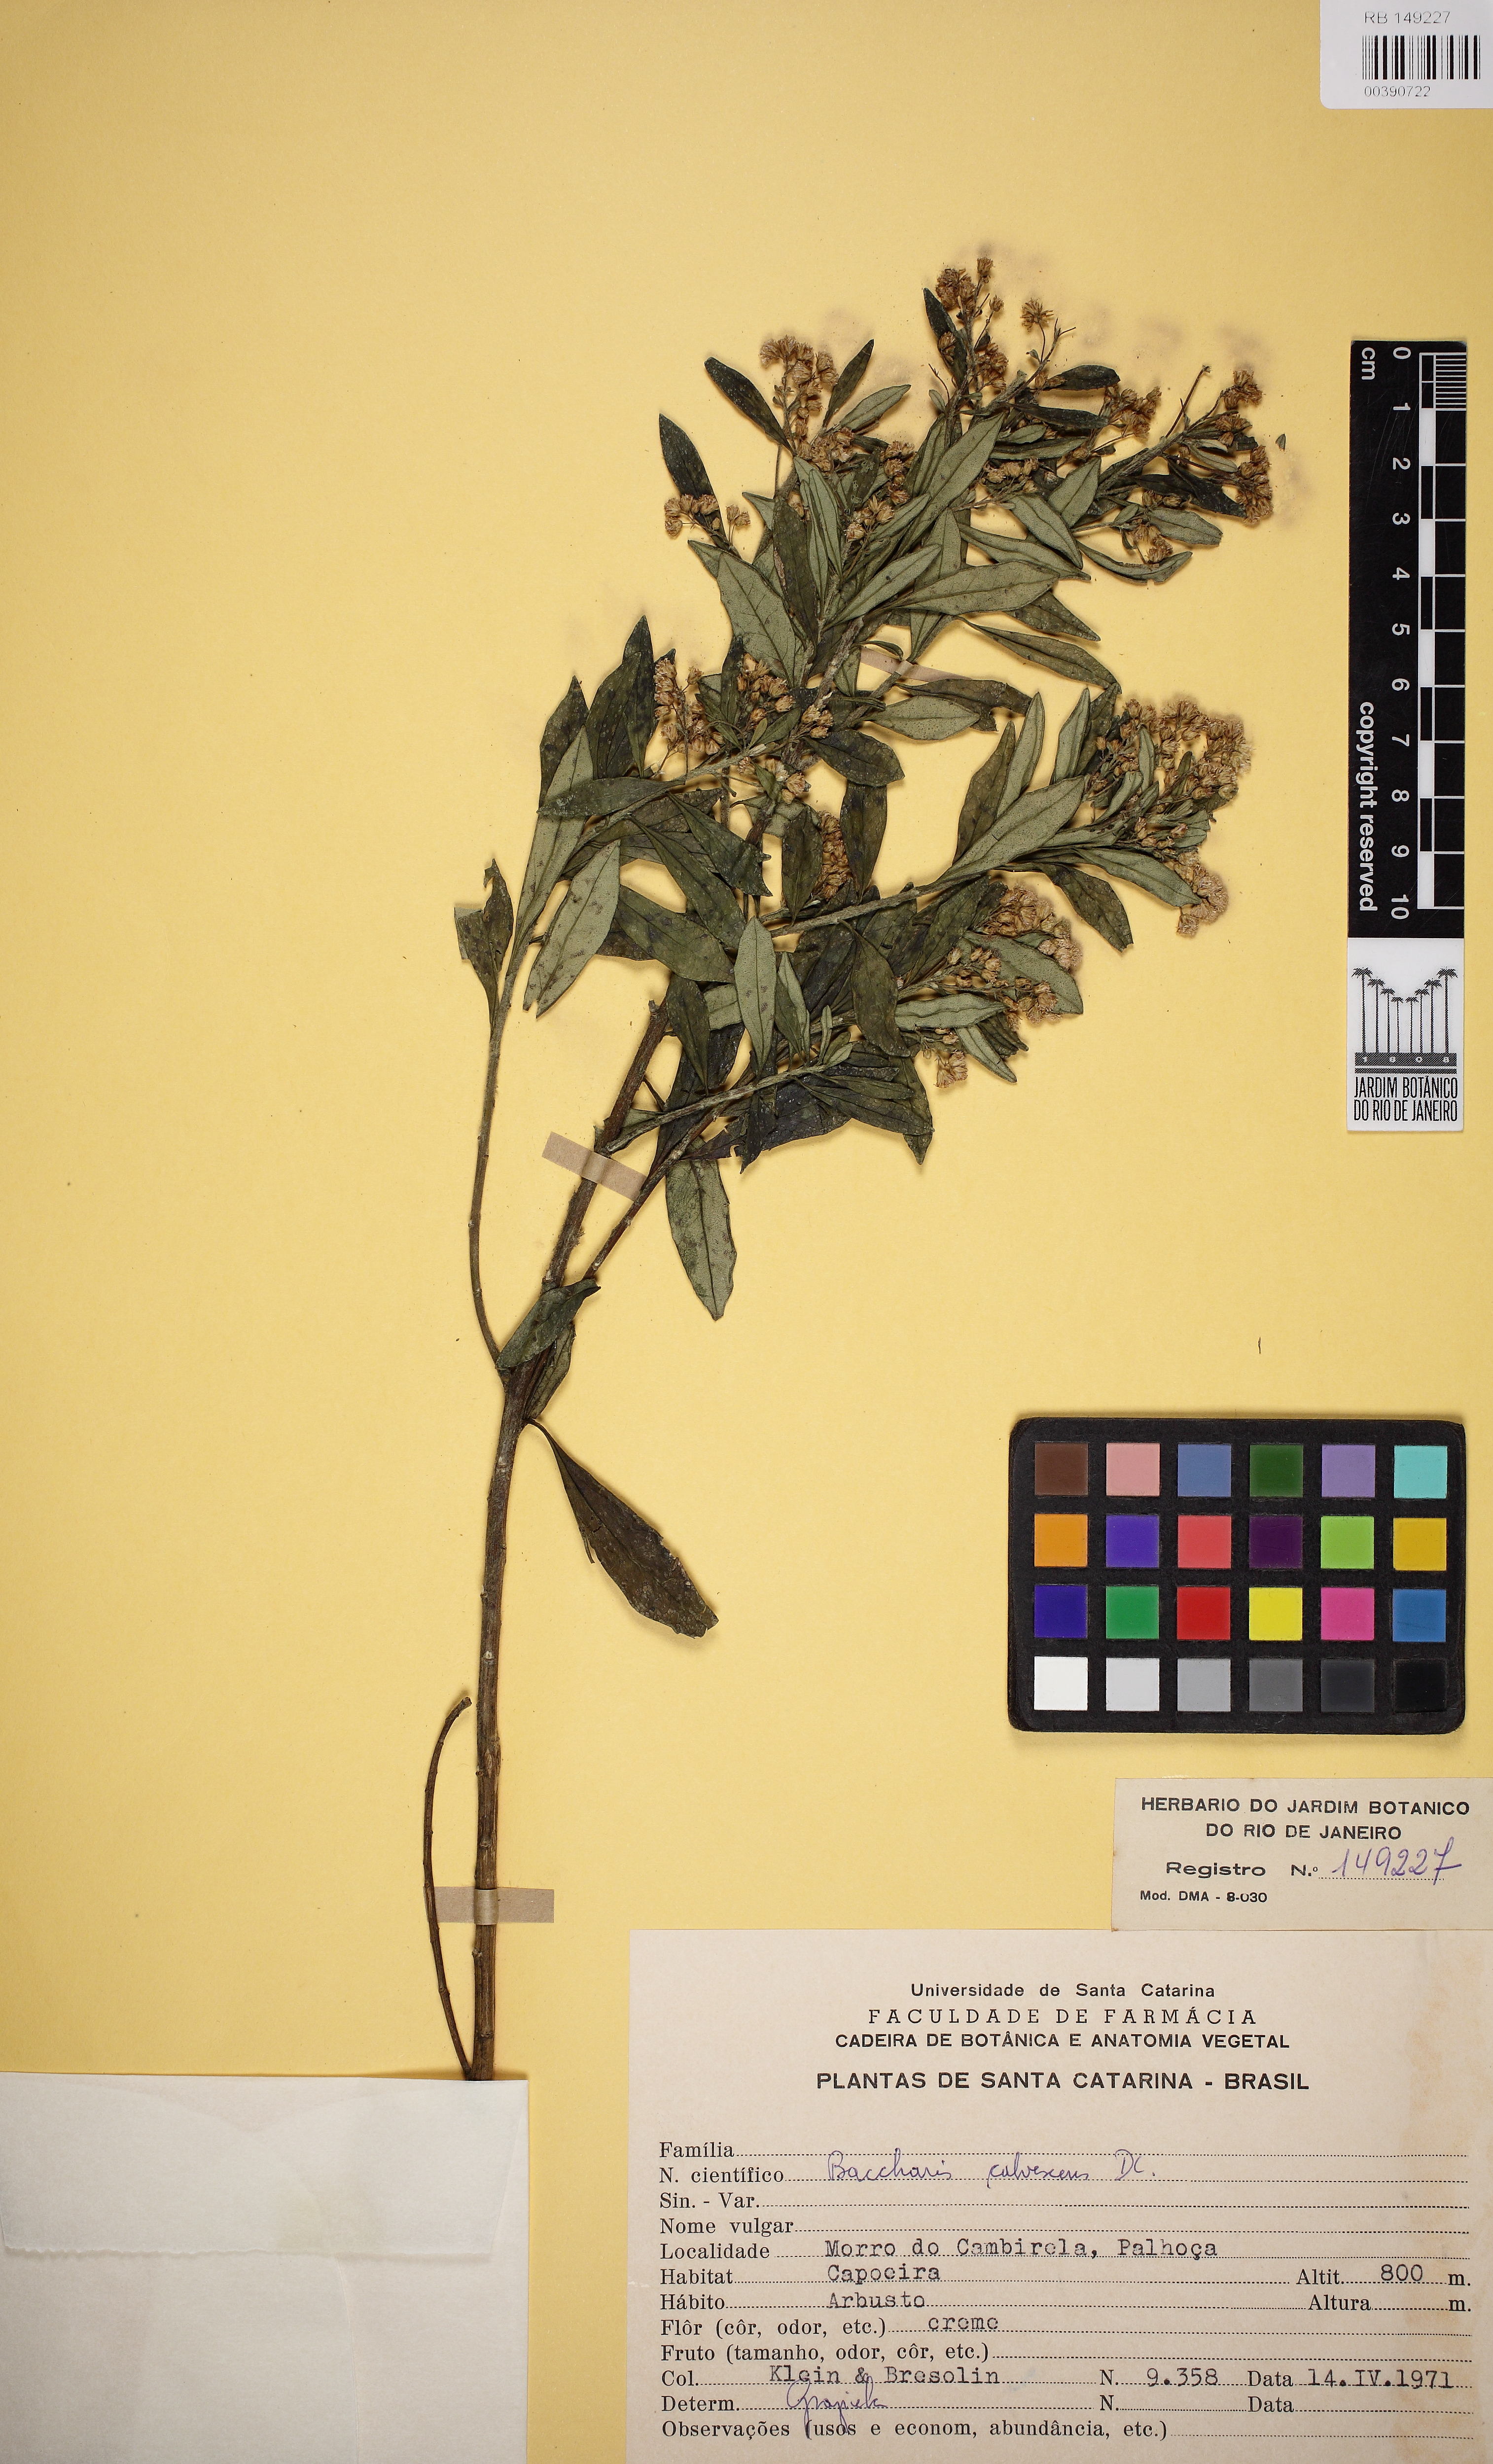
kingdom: Plantae
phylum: Tracheophyta
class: Magnoliopsida
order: Asterales
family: Asteraceae
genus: Baccharis
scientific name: Baccharis calvescens
